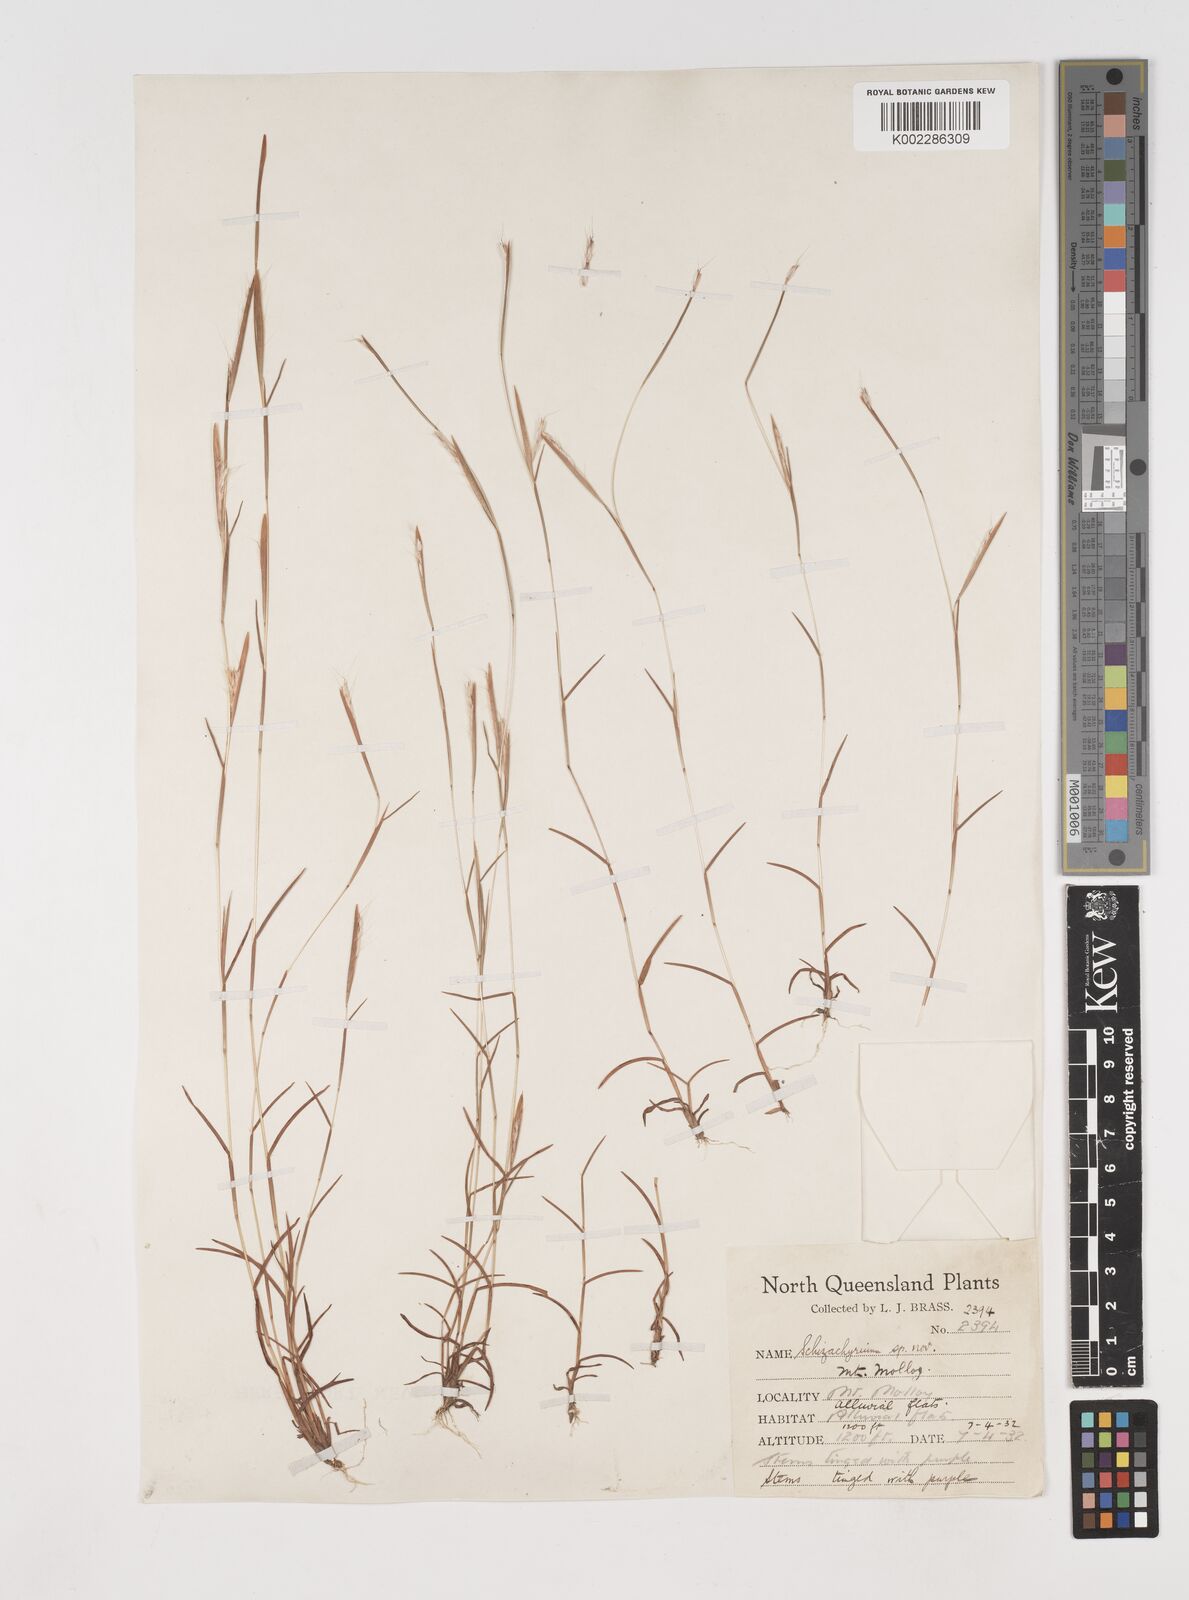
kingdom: Plantae
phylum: Tracheophyta
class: Liliopsida
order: Poales
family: Poaceae
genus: Schizachyrium
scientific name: Schizachyrium
